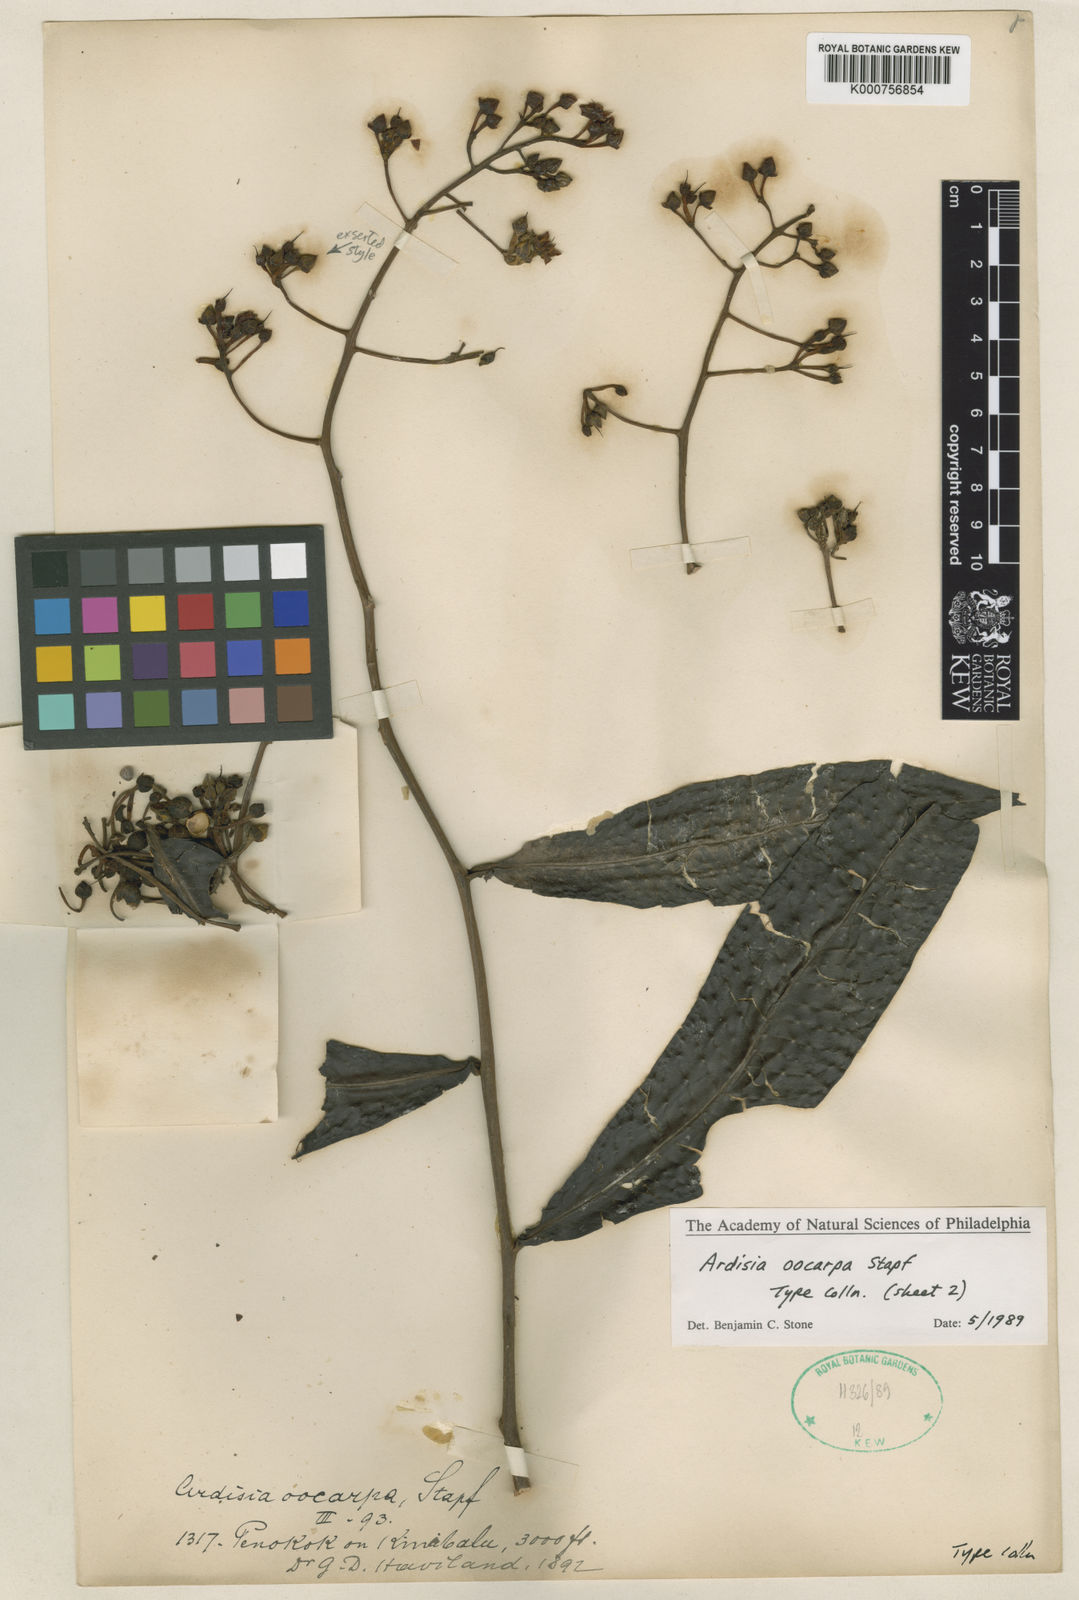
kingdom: Plantae
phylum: Tracheophyta
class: Magnoliopsida
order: Ericales
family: Primulaceae
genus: Ardisia
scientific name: Ardisia oocarpa
